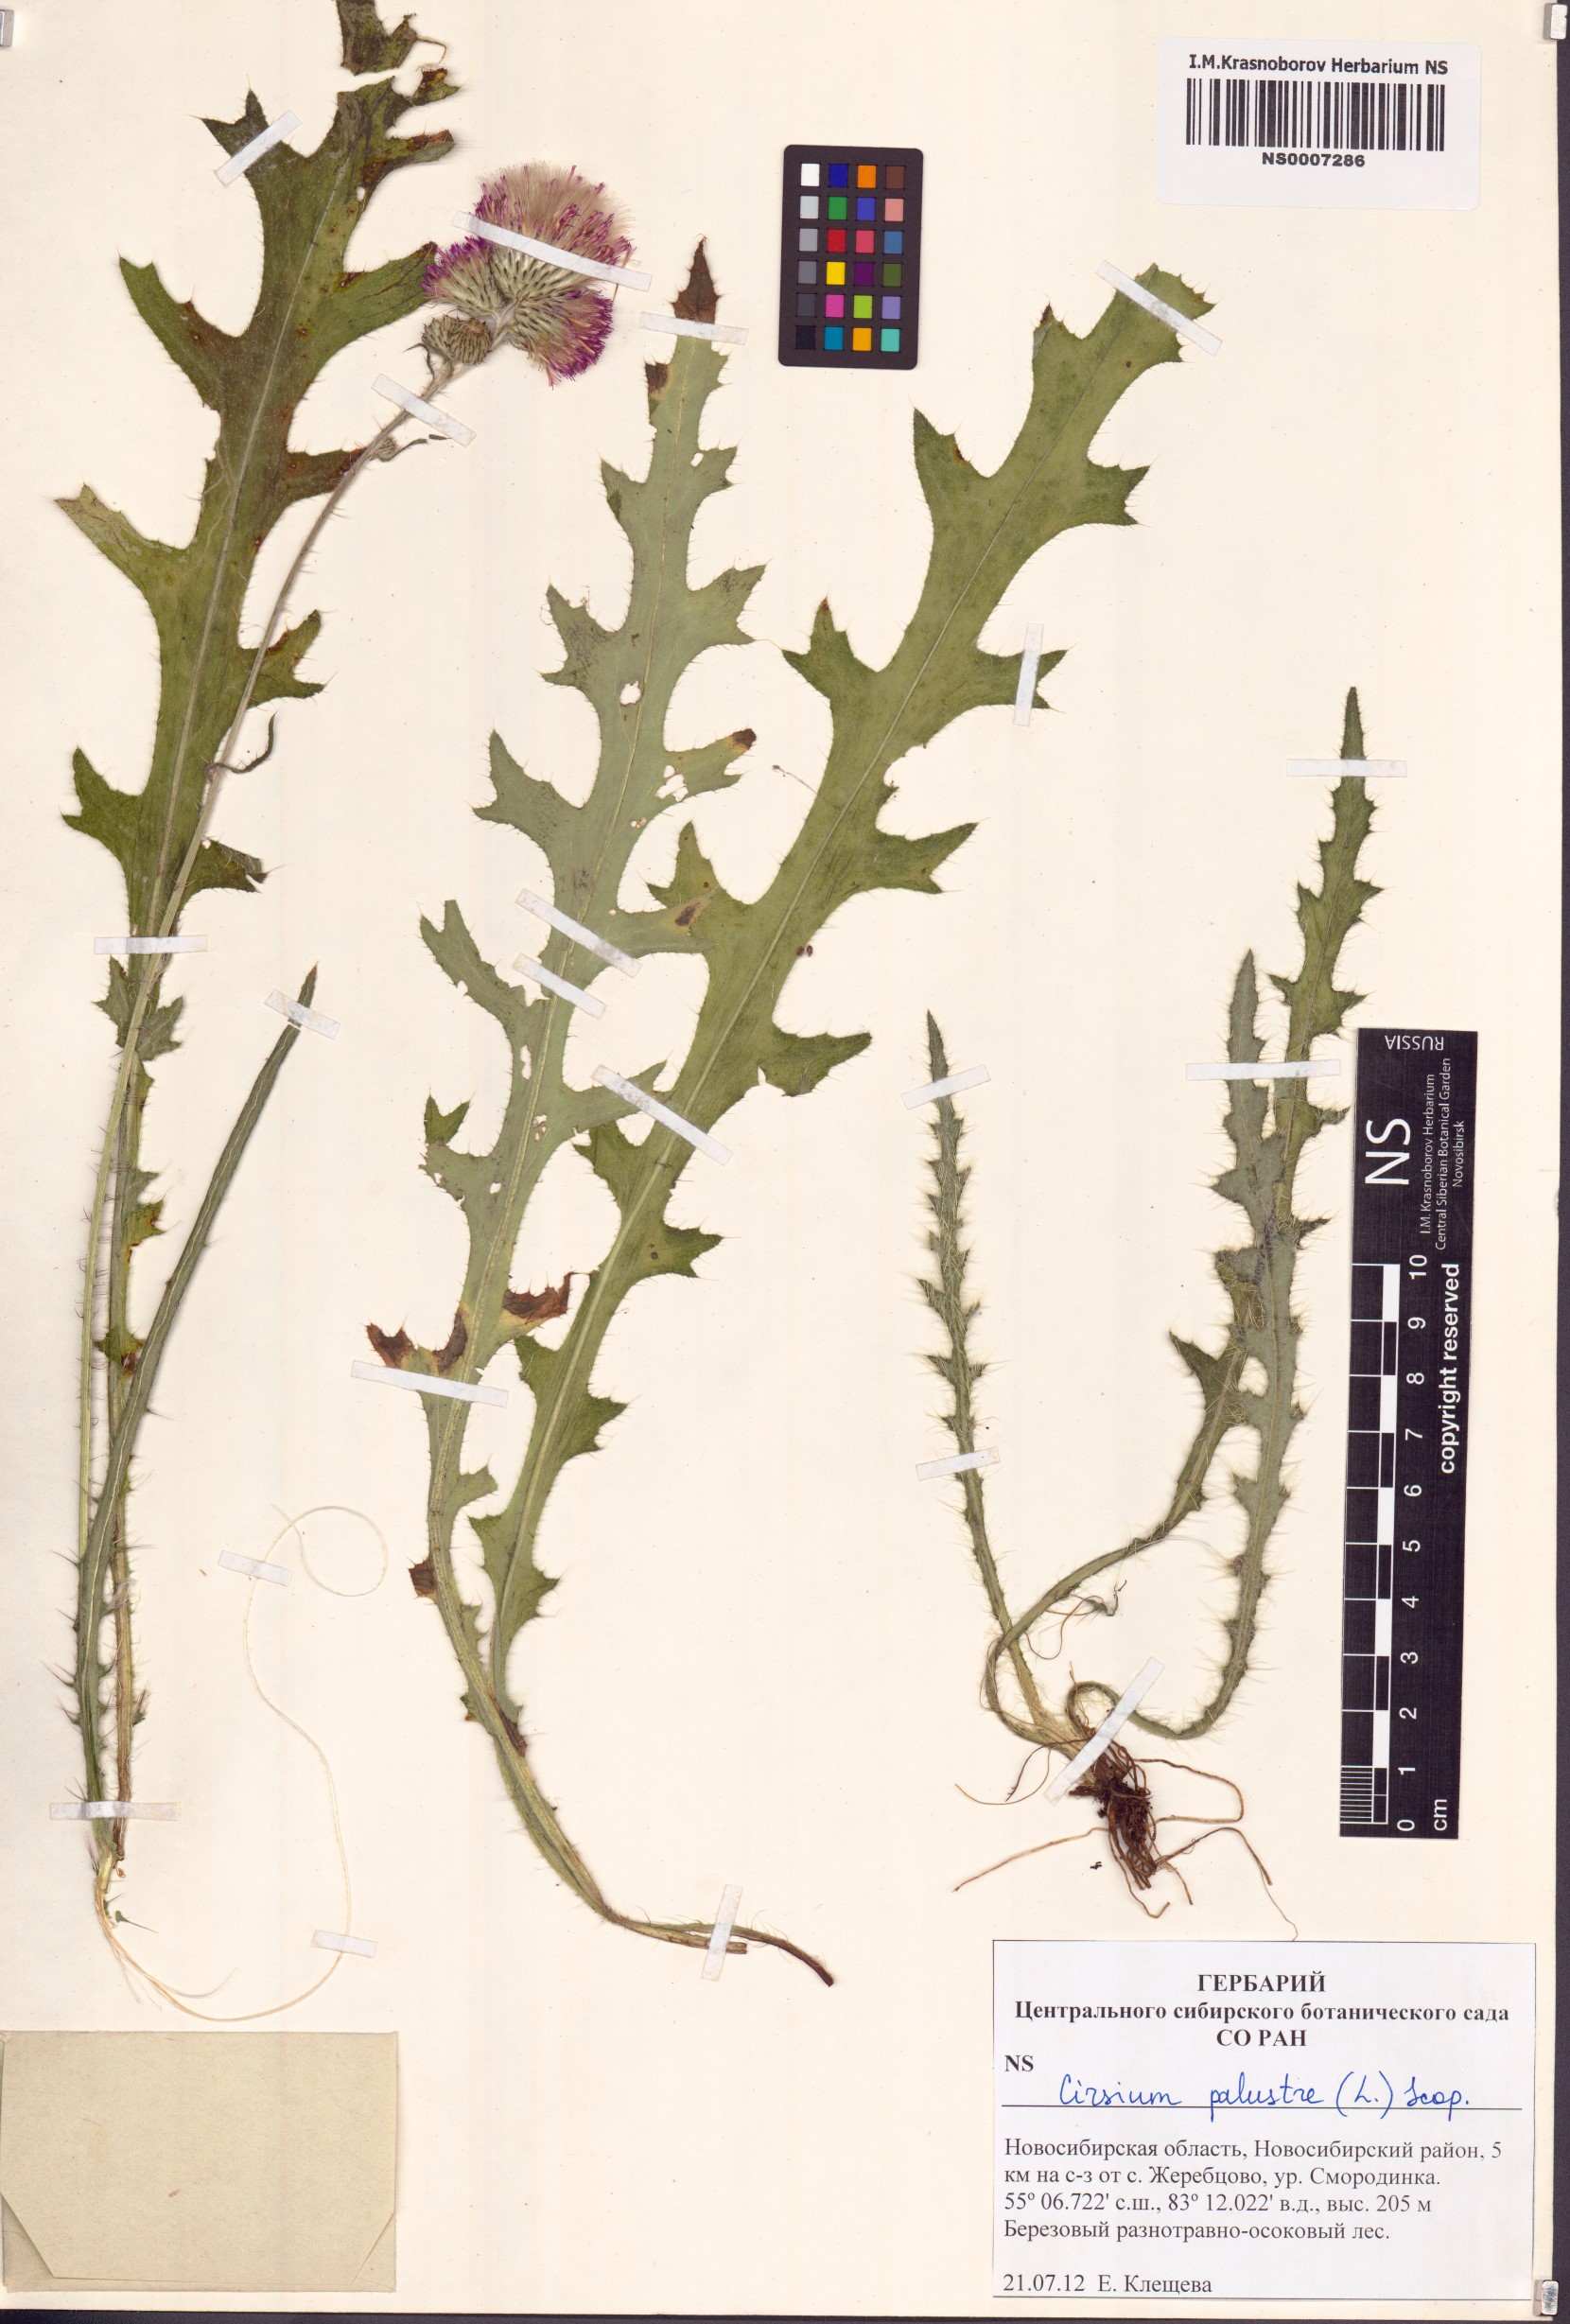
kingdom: Plantae
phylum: Tracheophyta
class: Magnoliopsida
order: Asterales
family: Asteraceae
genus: Cirsium
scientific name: Cirsium palustre
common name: Marsh thistle
